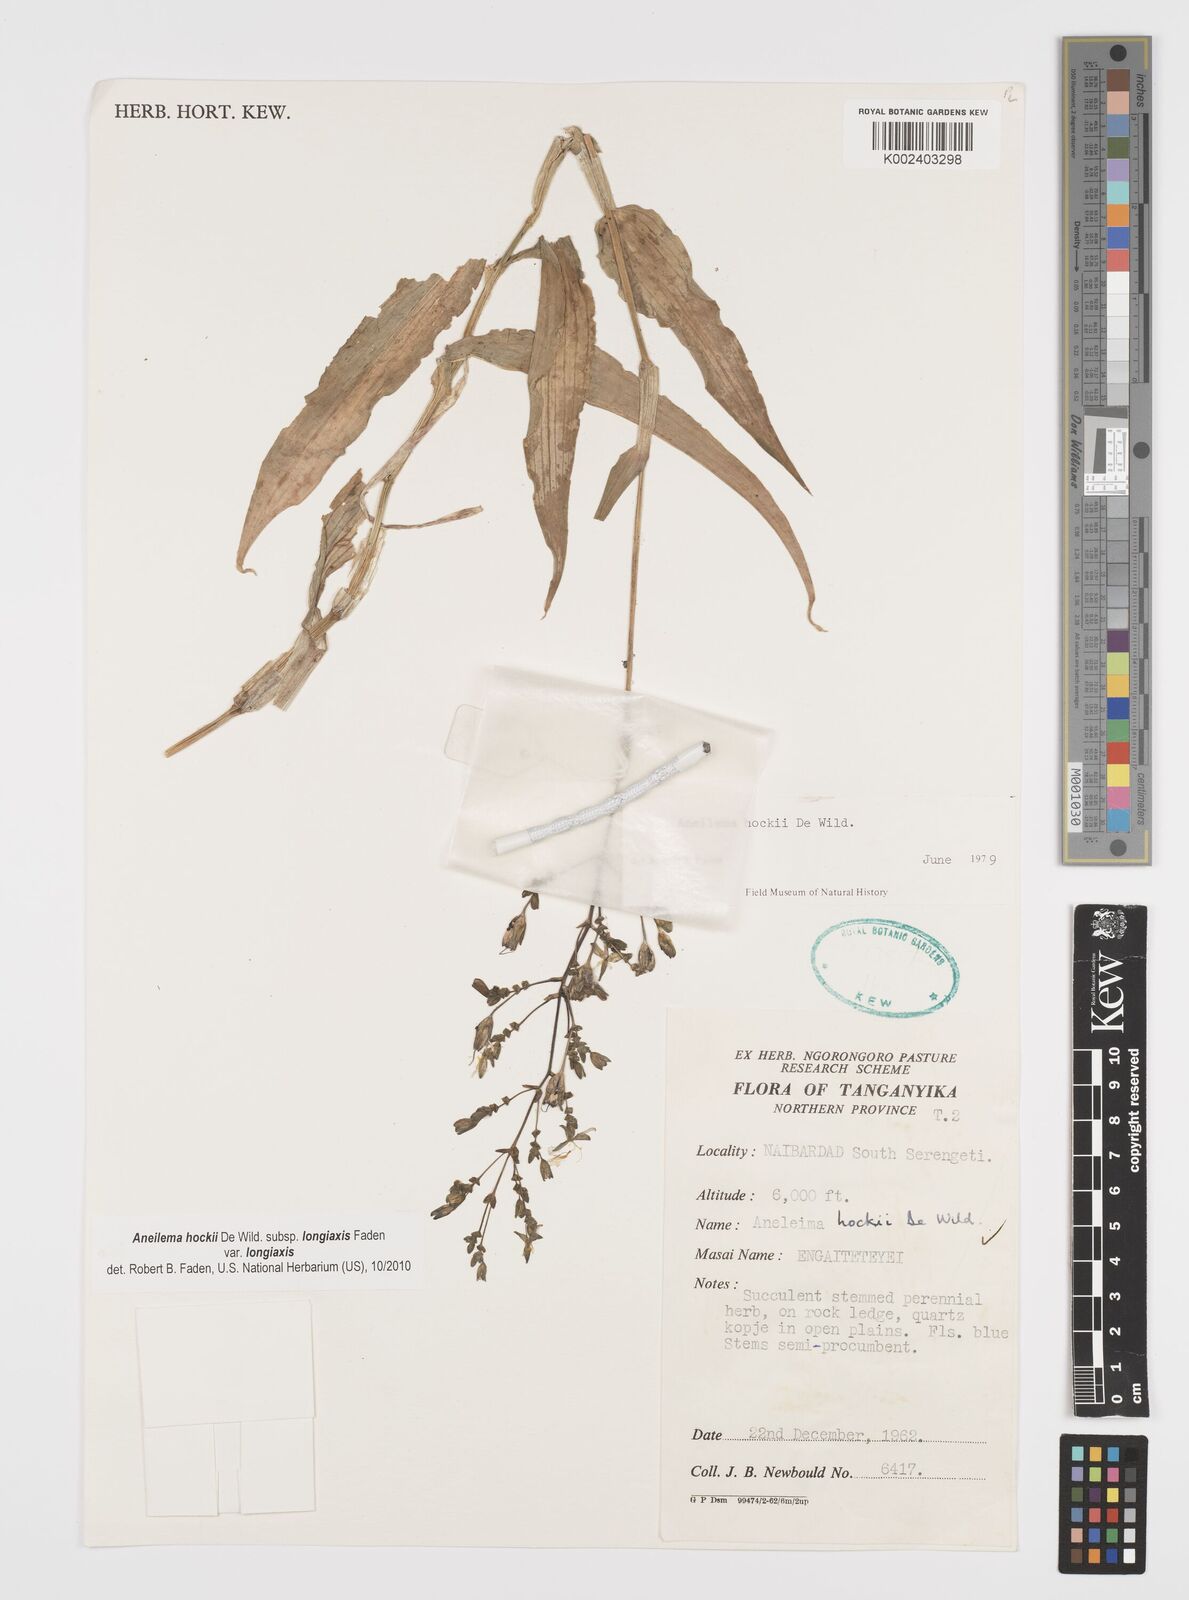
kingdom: Plantae
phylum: Tracheophyta
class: Liliopsida
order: Commelinales
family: Commelinaceae
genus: Aneilema
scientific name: Aneilema hockii
